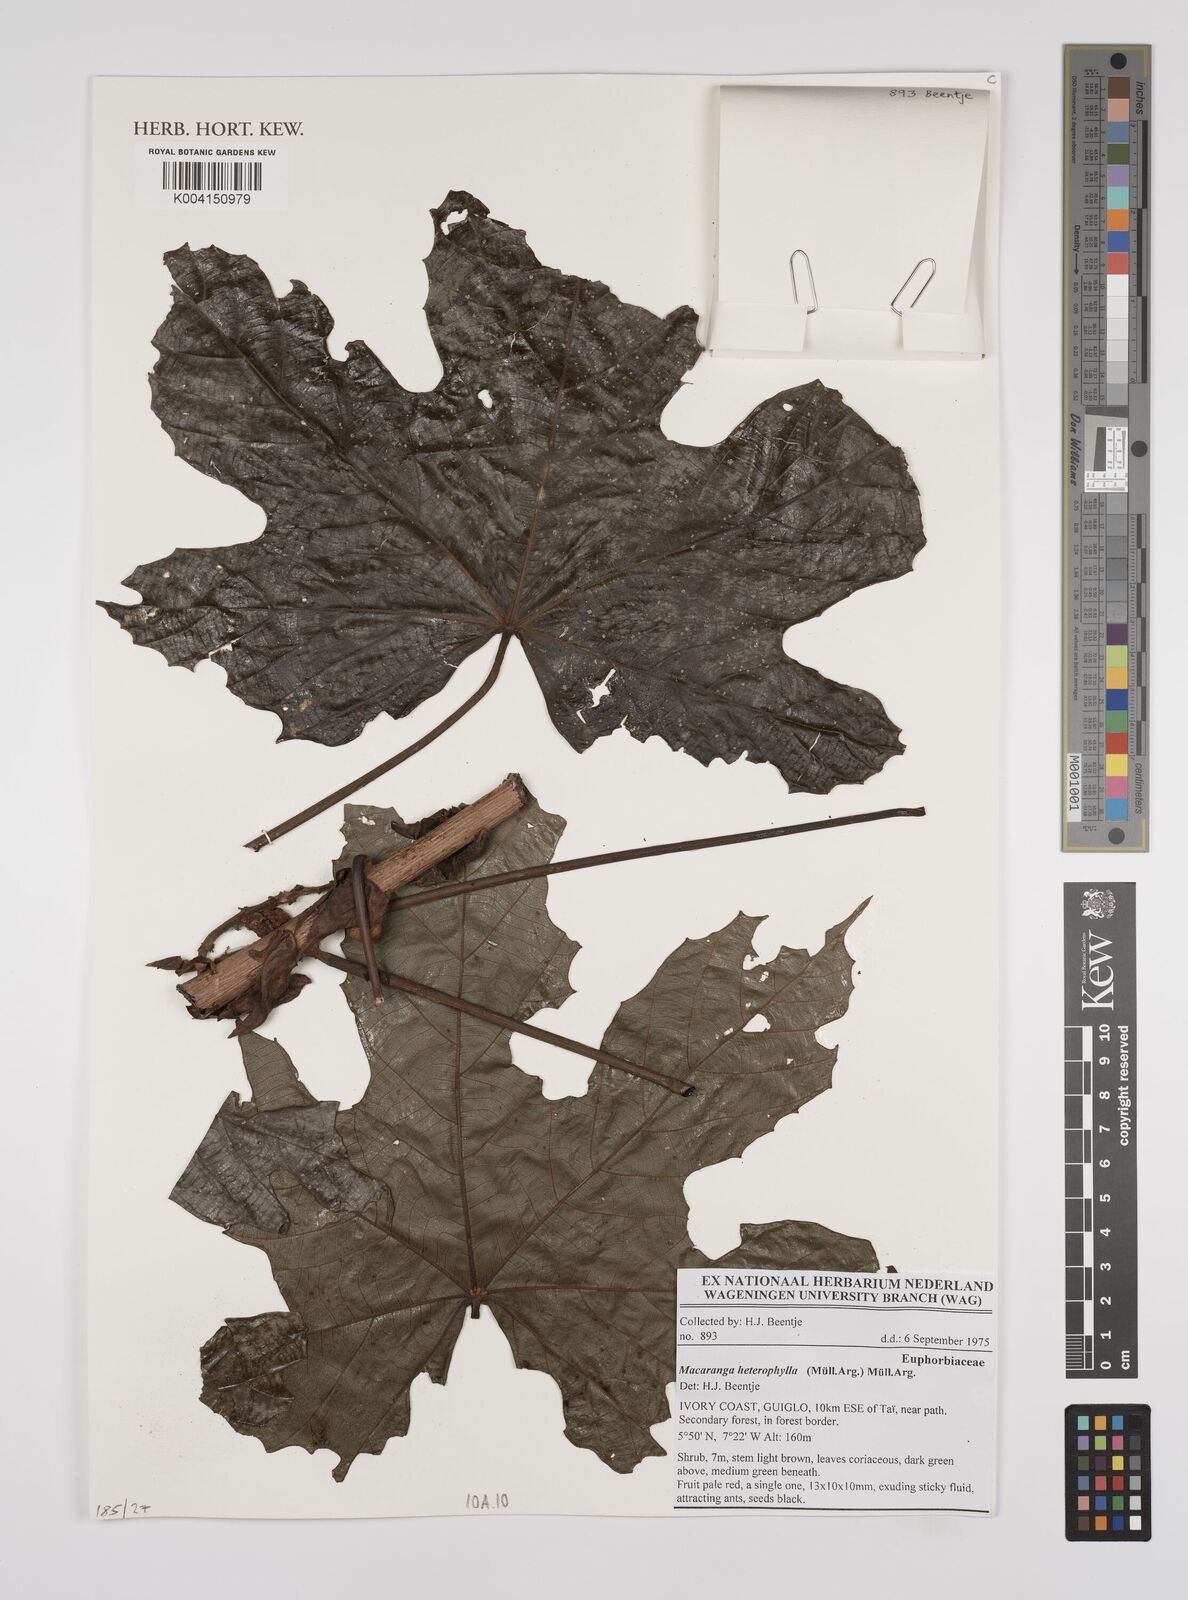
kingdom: Plantae
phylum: Tracheophyta
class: Magnoliopsida
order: Malpighiales
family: Euphorbiaceae
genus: Macaranga
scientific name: Macaranga heterophylla
